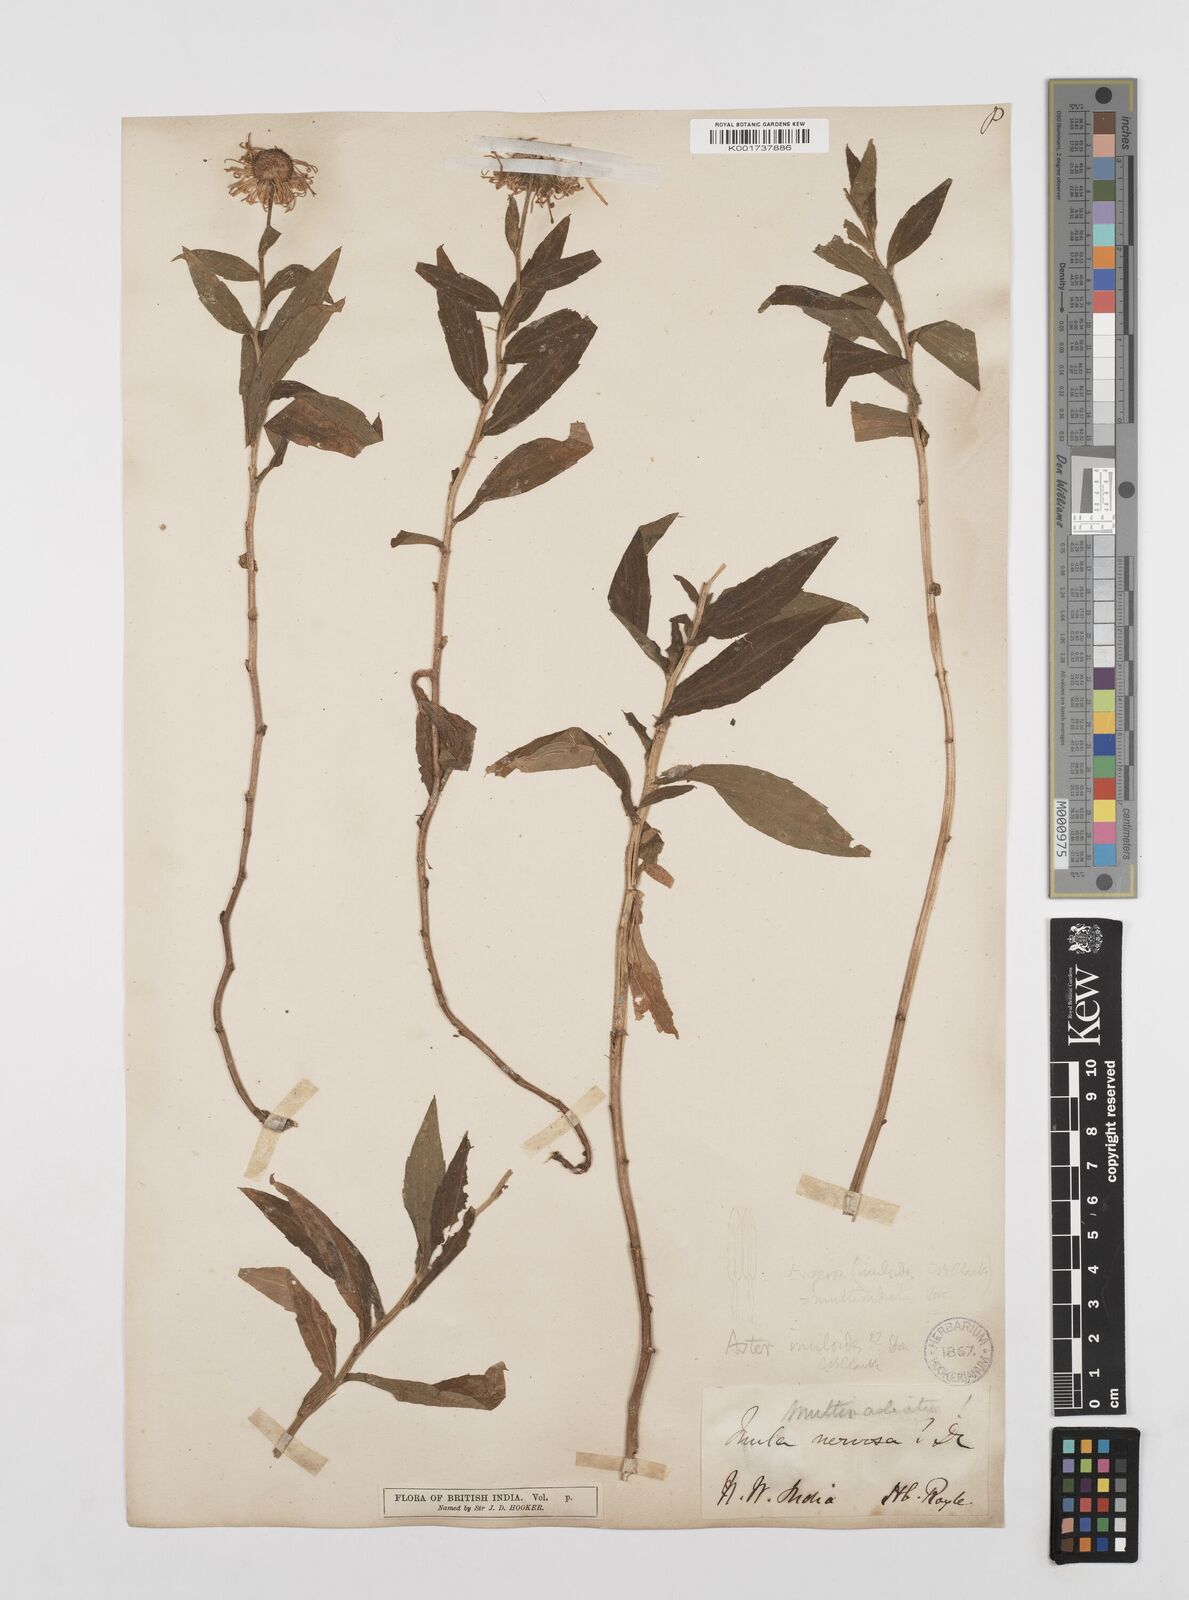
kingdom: Plantae
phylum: Tracheophyta
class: Magnoliopsida
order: Asterales
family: Asteraceae
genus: Erigeron
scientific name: Erigeron multiradiatus
